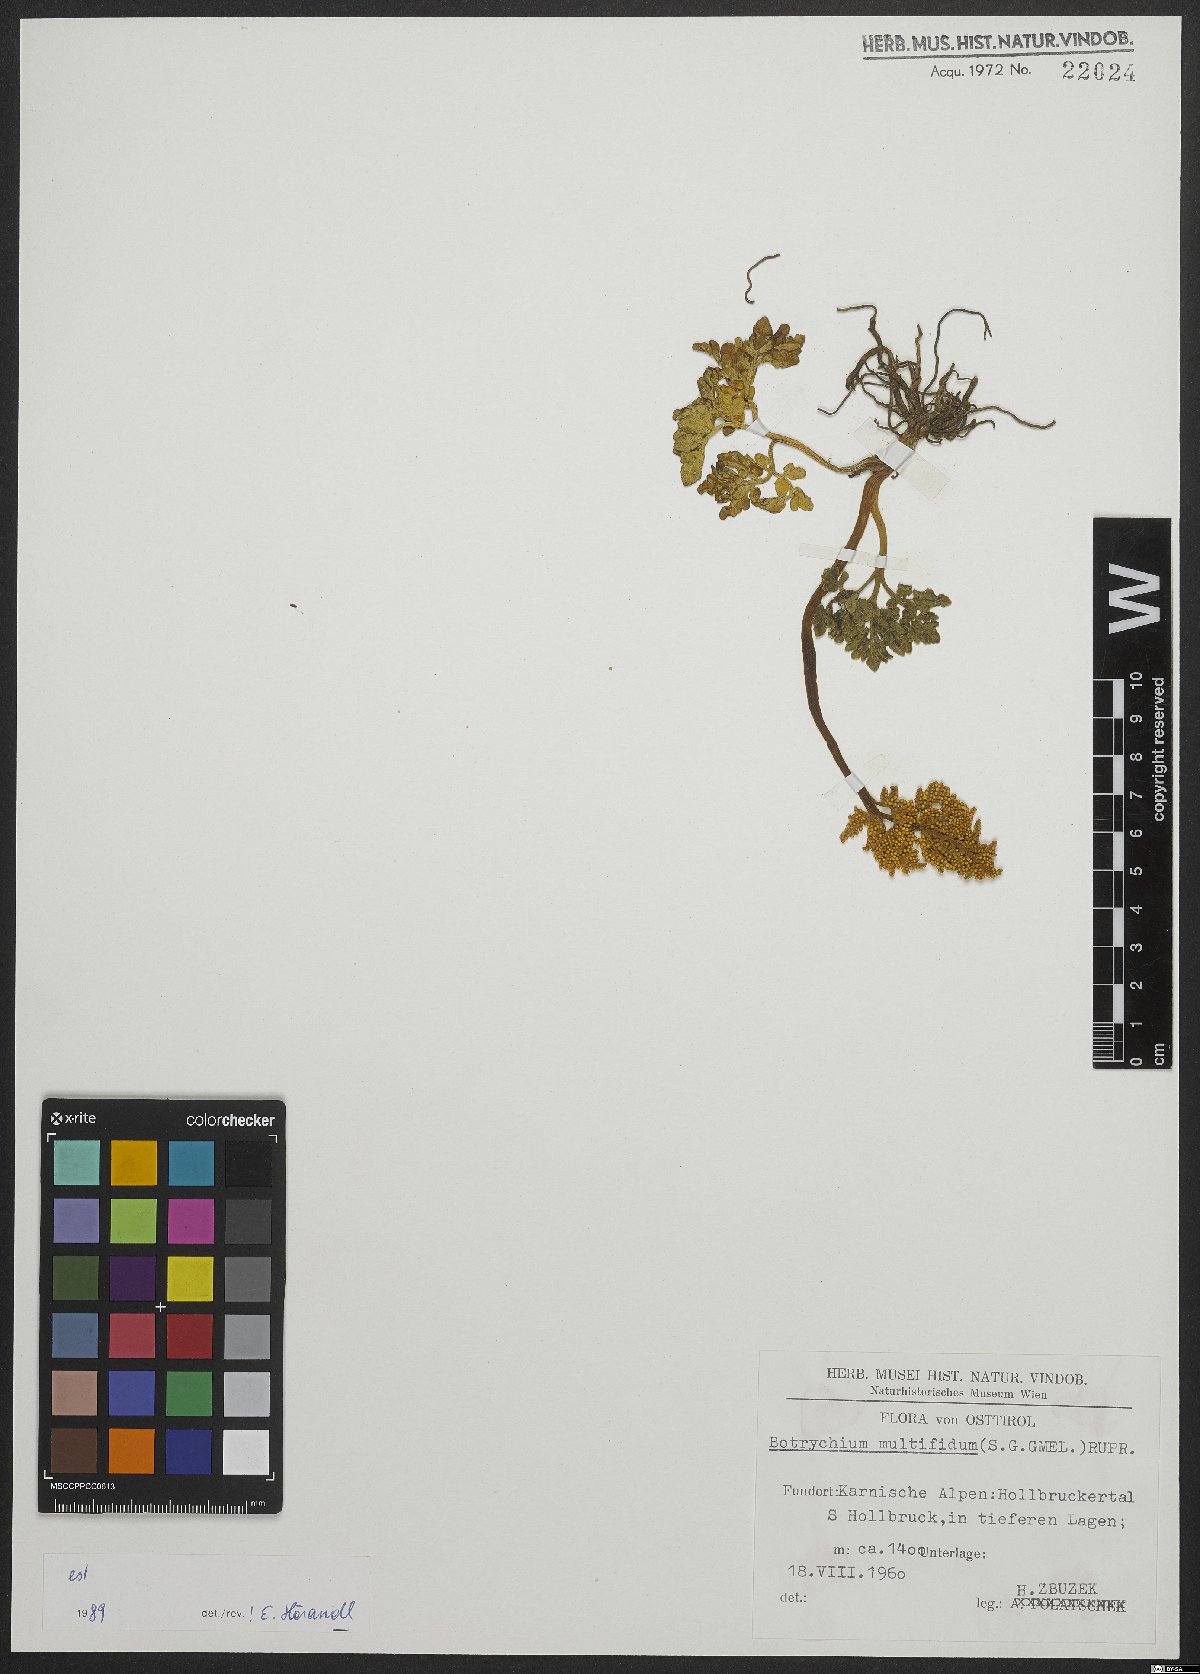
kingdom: Plantae
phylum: Tracheophyta
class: Polypodiopsida
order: Ophioglossales
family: Ophioglossaceae
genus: Sceptridium
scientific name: Sceptridium multifidum
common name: Leathery grape fern
